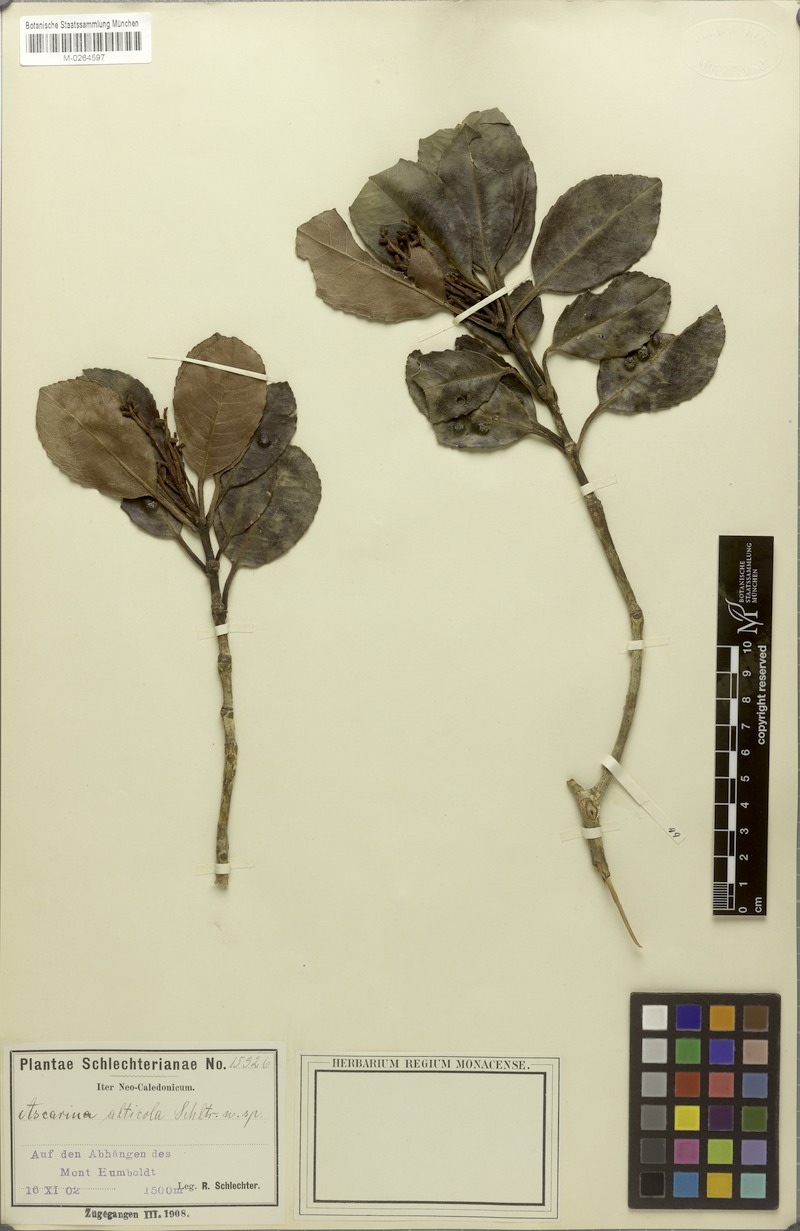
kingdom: Plantae
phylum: Tracheophyta
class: Magnoliopsida
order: Paracryphiales
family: Paracryphiaceae
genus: Paracryphia
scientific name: Paracryphia alticola
